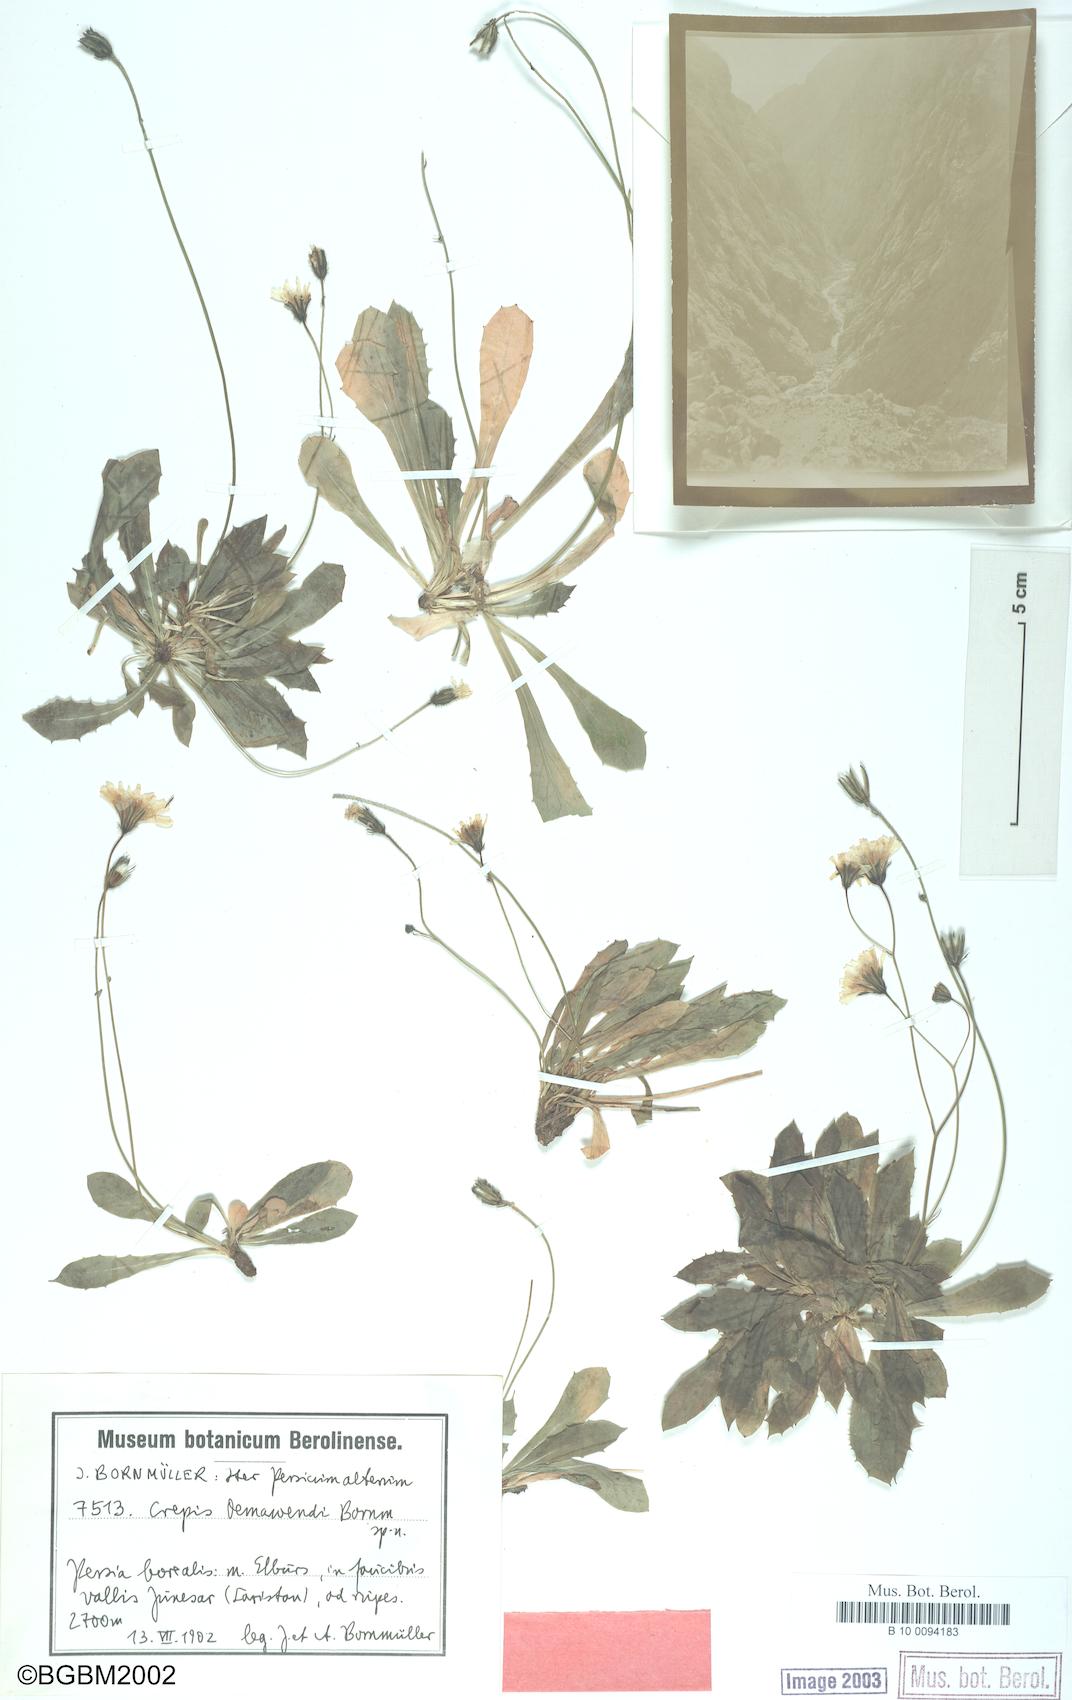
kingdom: Plantae
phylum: Tracheophyta
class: Magnoliopsida
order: Asterales
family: Asteraceae
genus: Crepis
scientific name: Crepis demavendi
